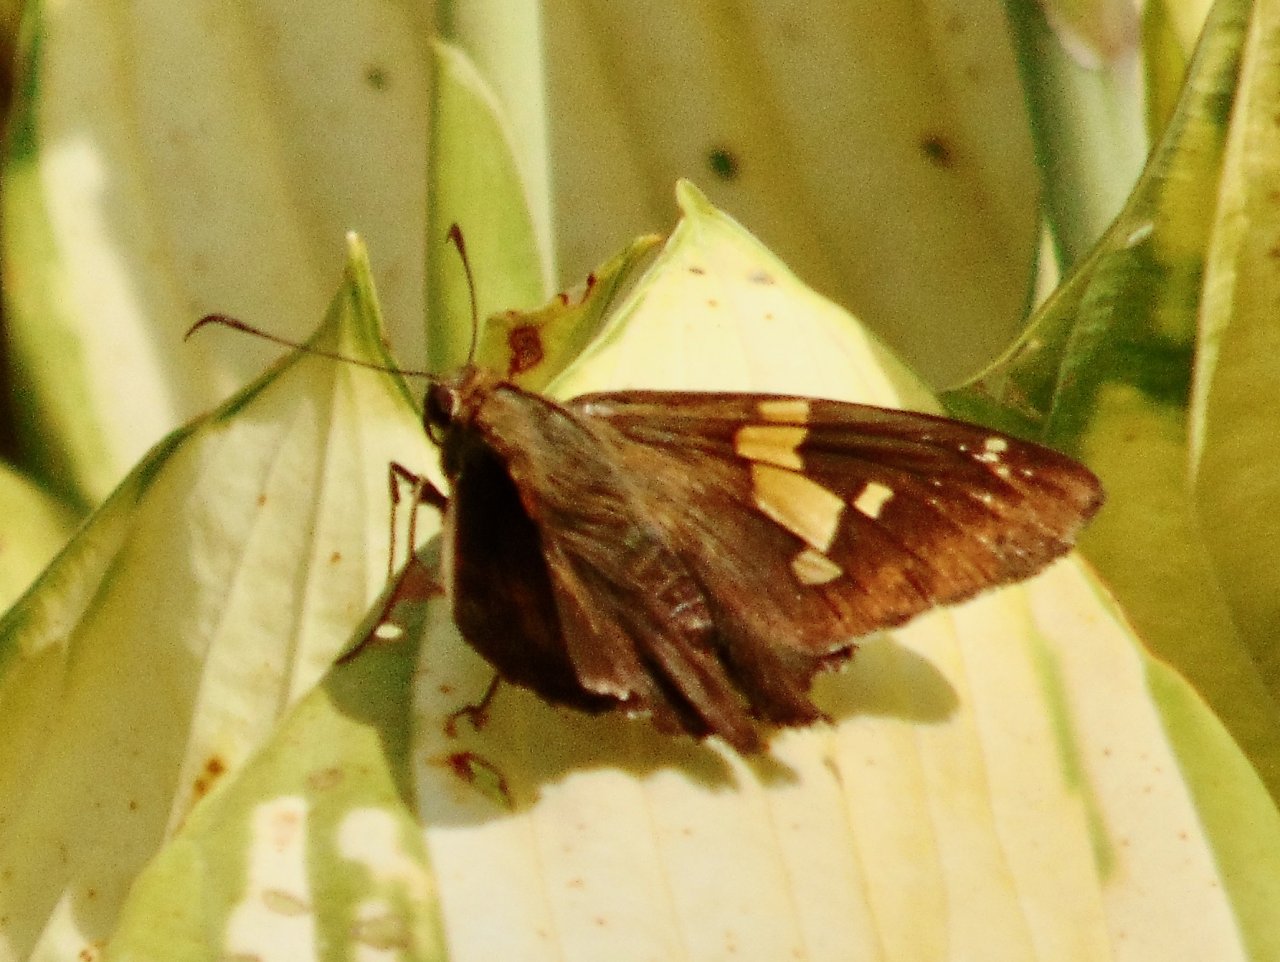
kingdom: Animalia
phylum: Arthropoda
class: Insecta
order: Lepidoptera
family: Hesperiidae
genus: Epargyreus
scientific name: Epargyreus clarus
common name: Silver-spotted Skipper
